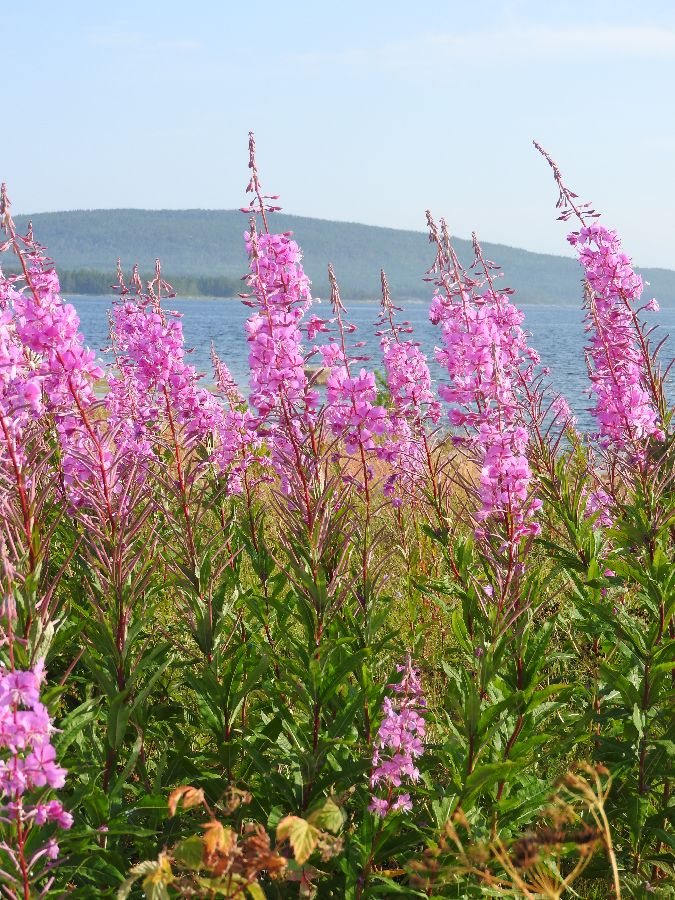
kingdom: Plantae
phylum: Tracheophyta
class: Magnoliopsida
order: Myrtales
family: Onagraceae
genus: Chamaenerion
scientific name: Chamaenerion angustifolium
